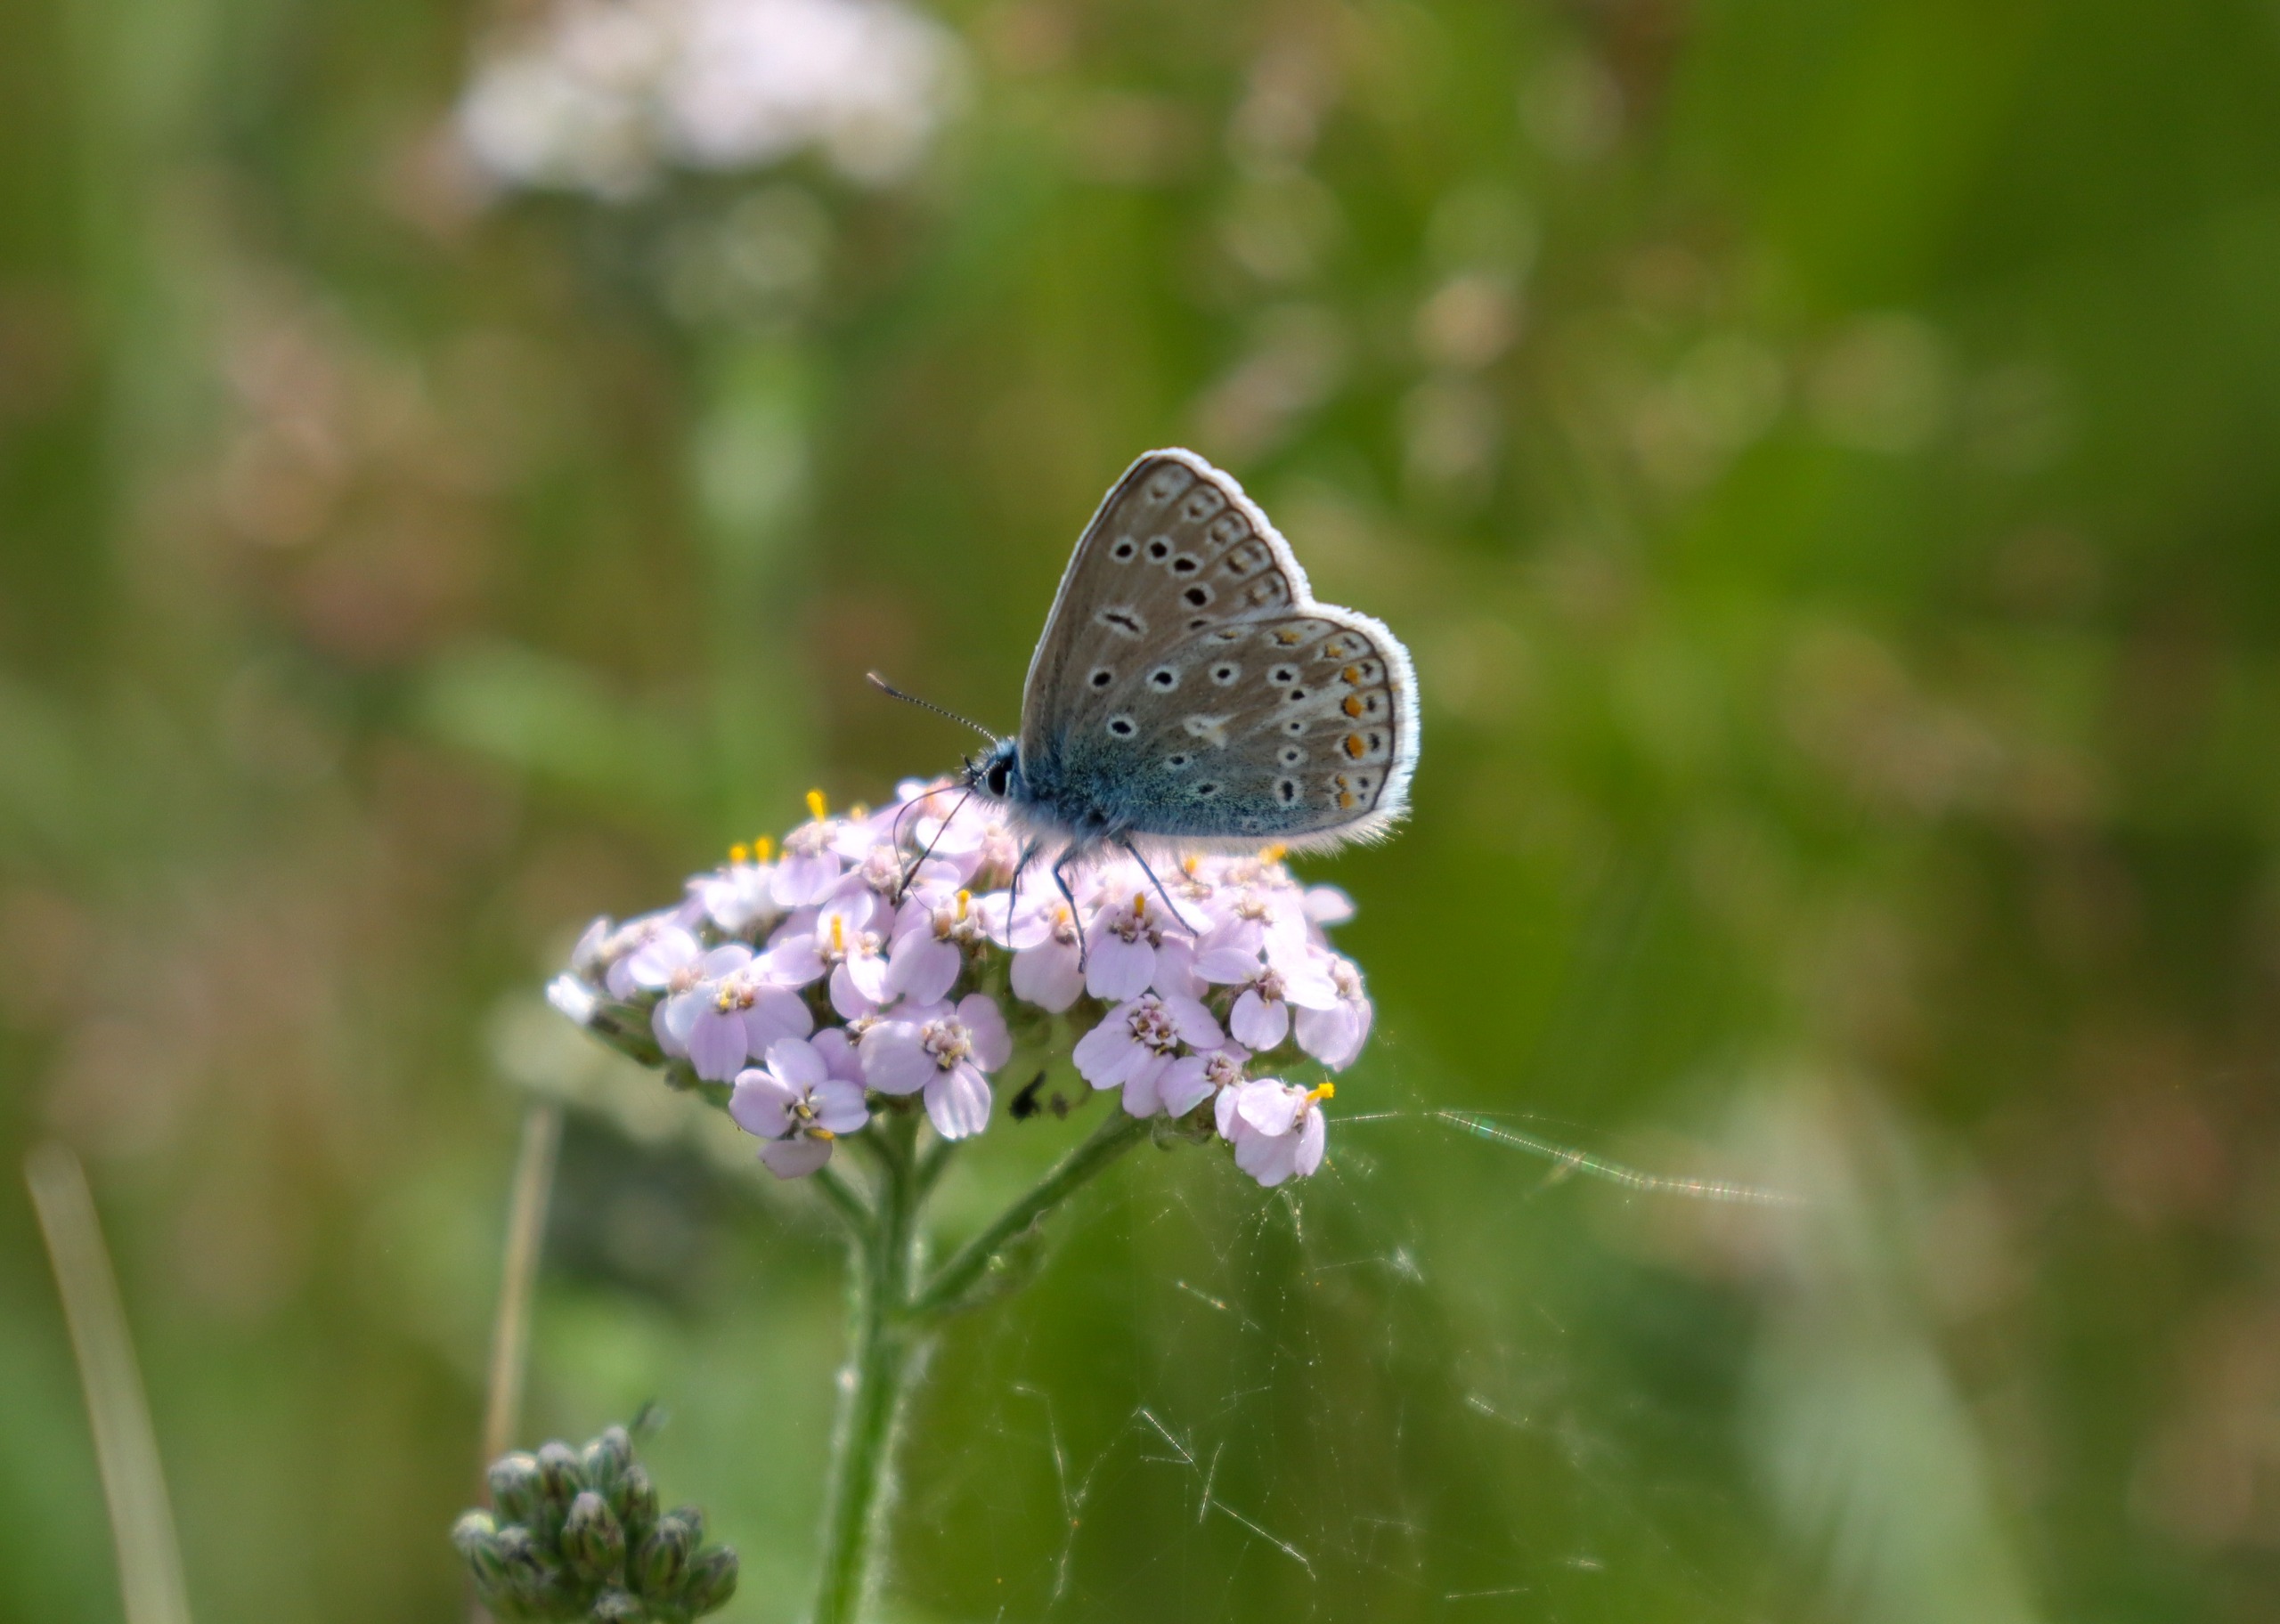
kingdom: Animalia
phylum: Arthropoda
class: Insecta
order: Lepidoptera
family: Lycaenidae
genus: Polyommatus
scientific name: Polyommatus icarus
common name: Almindelig blåfugl
